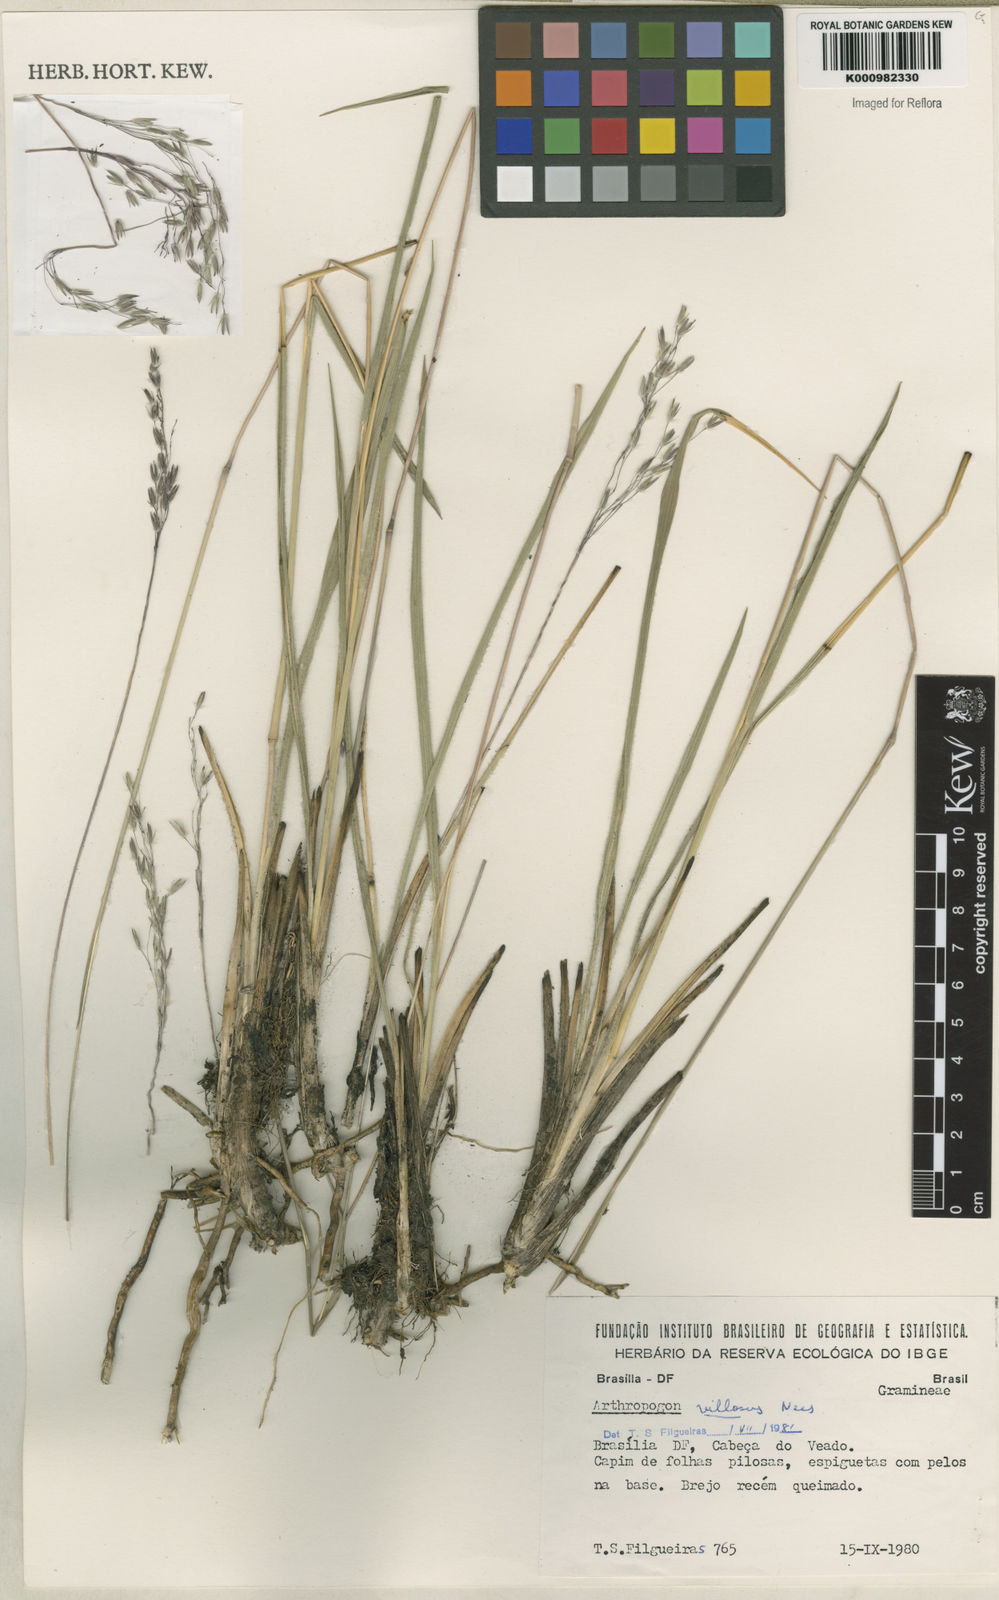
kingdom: Plantae
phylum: Tracheophyta
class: Liliopsida
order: Poales
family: Poaceae
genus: Arthropogon
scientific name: Arthropogon villosus
